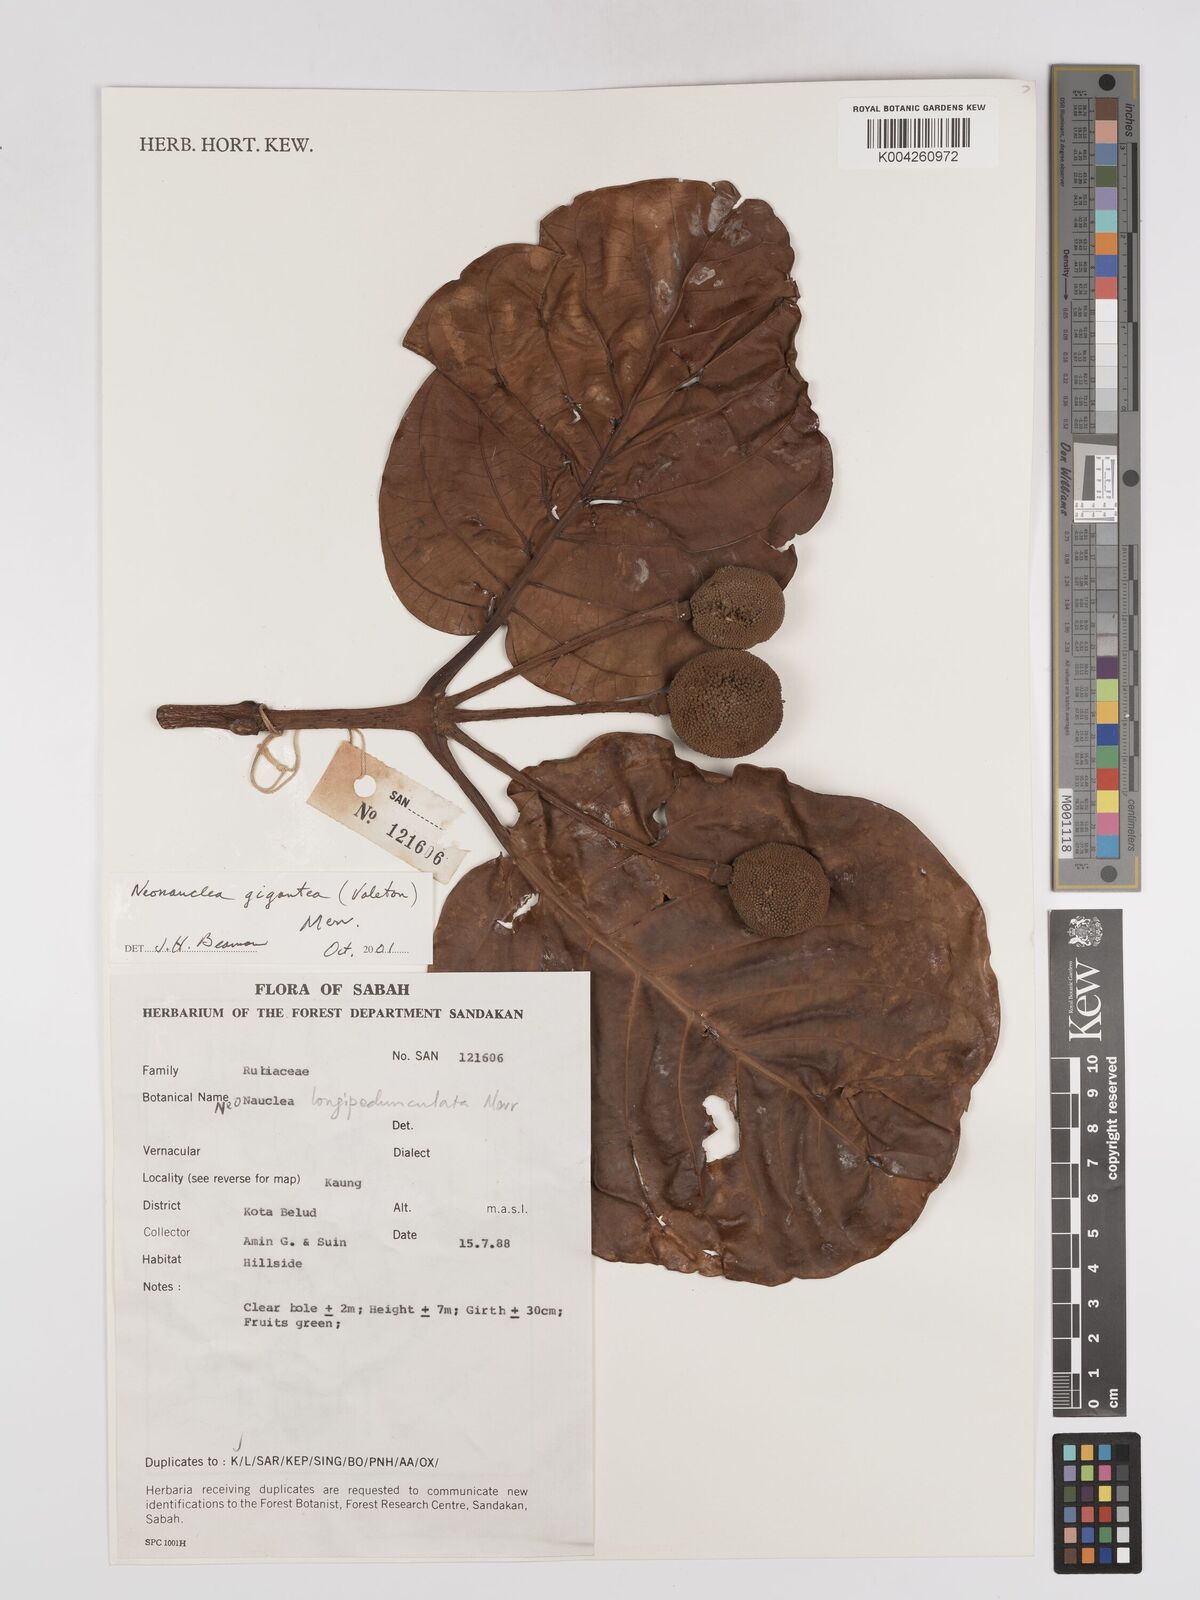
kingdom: Plantae
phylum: Tracheophyta
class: Magnoliopsida
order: Gentianales
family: Rubiaceae
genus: Neonauclea
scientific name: Neonauclea gigantea
